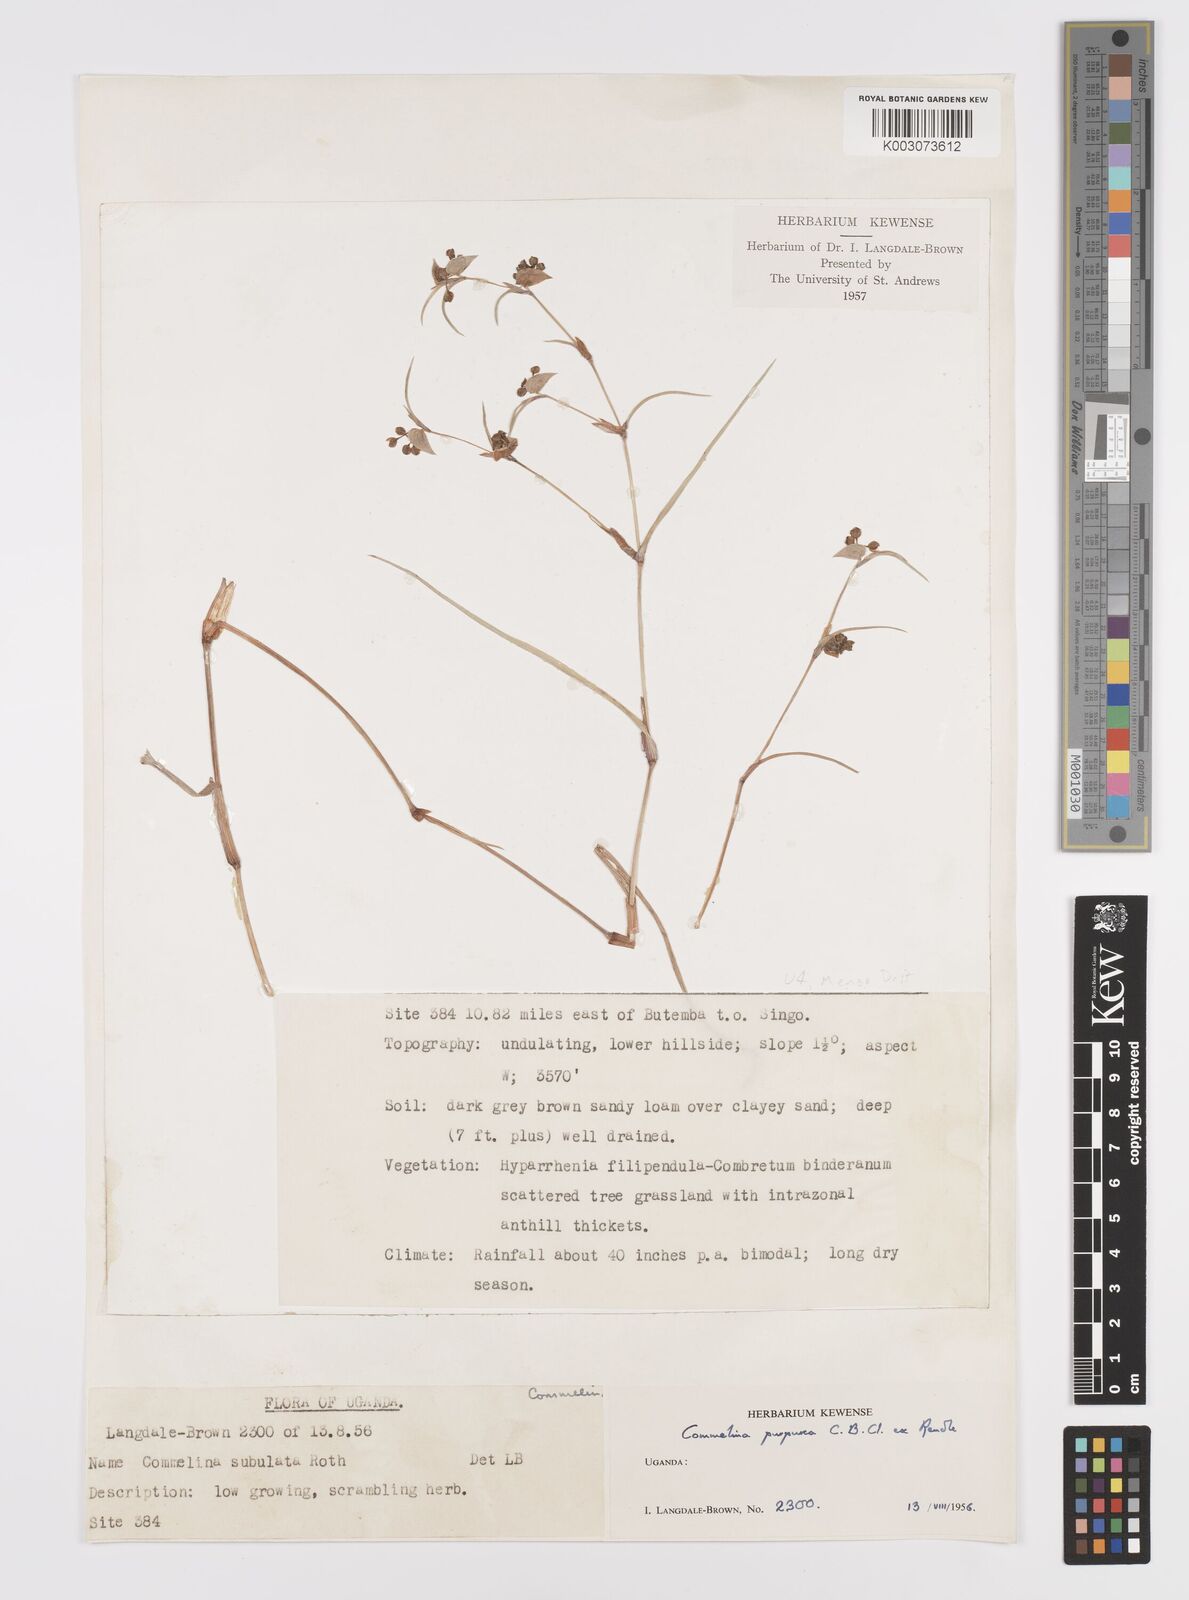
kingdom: Plantae
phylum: Tracheophyta
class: Liliopsida
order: Commelinales
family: Commelinaceae
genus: Commelina
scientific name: Commelina purpurea
